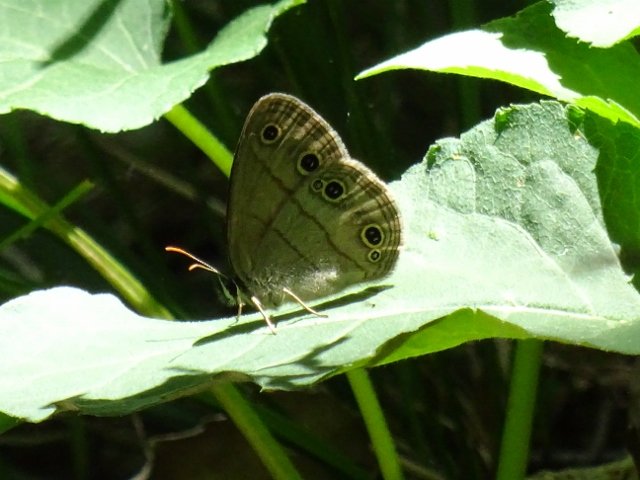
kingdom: Animalia
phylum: Arthropoda
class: Insecta
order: Lepidoptera
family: Nymphalidae
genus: Euptychia
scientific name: Euptychia cymela
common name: Little Wood Satyr
